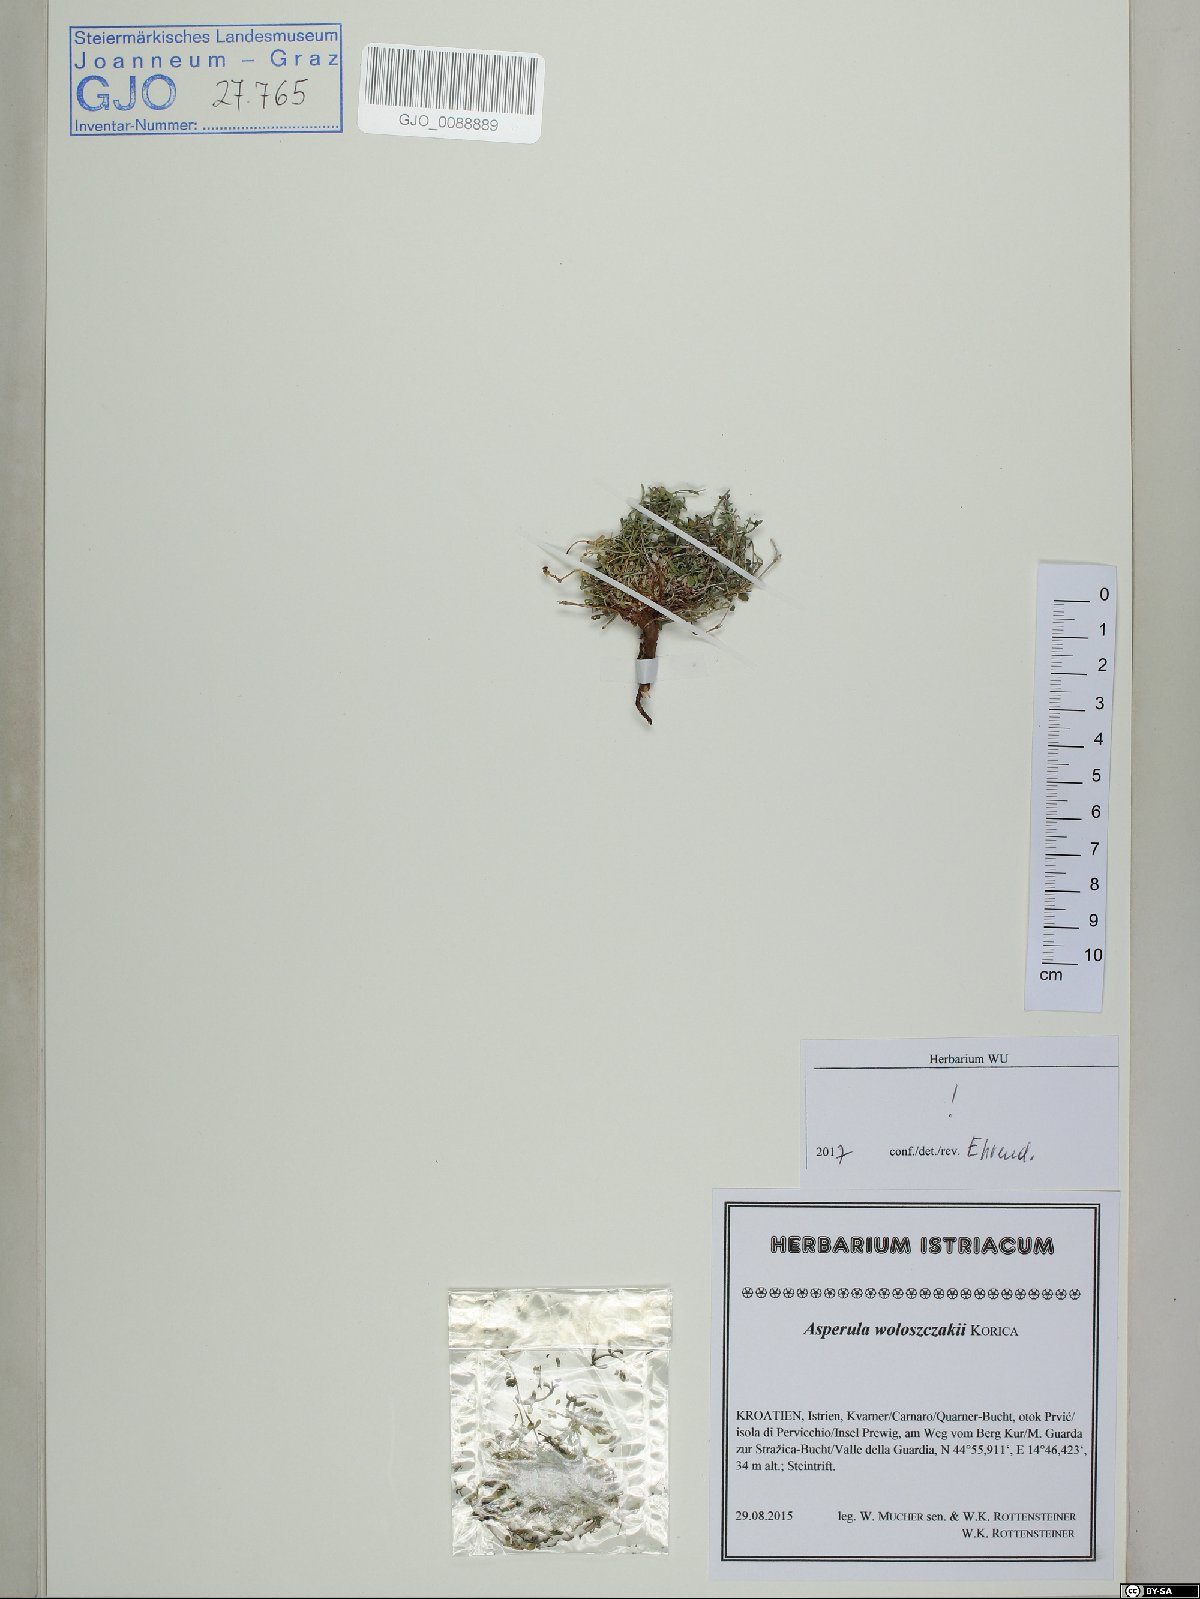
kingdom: Plantae
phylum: Tracheophyta
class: Magnoliopsida
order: Gentianales
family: Rubiaceae
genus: Cynanchica
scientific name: Cynanchica woloszczakii
